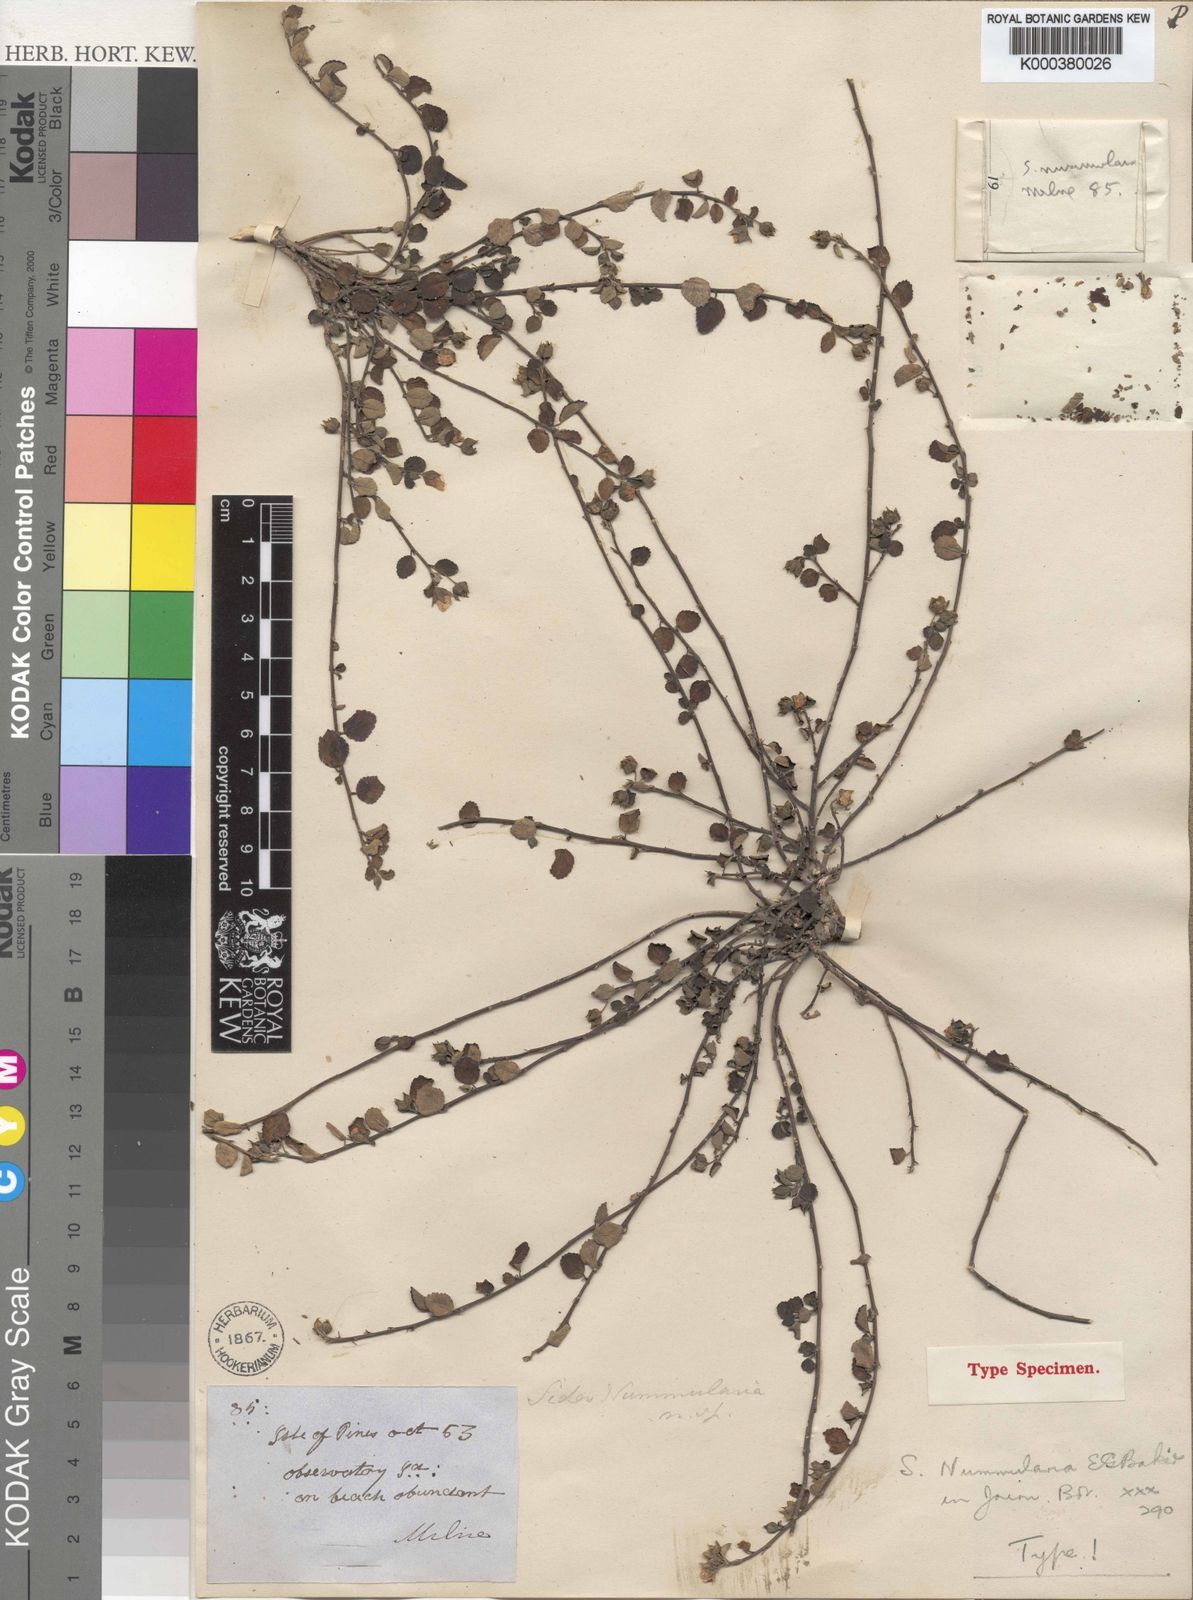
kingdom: Plantae
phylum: Tracheophyta
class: Magnoliopsida
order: Malvales
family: Malvaceae
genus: Sida
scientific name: Sida nummularia
